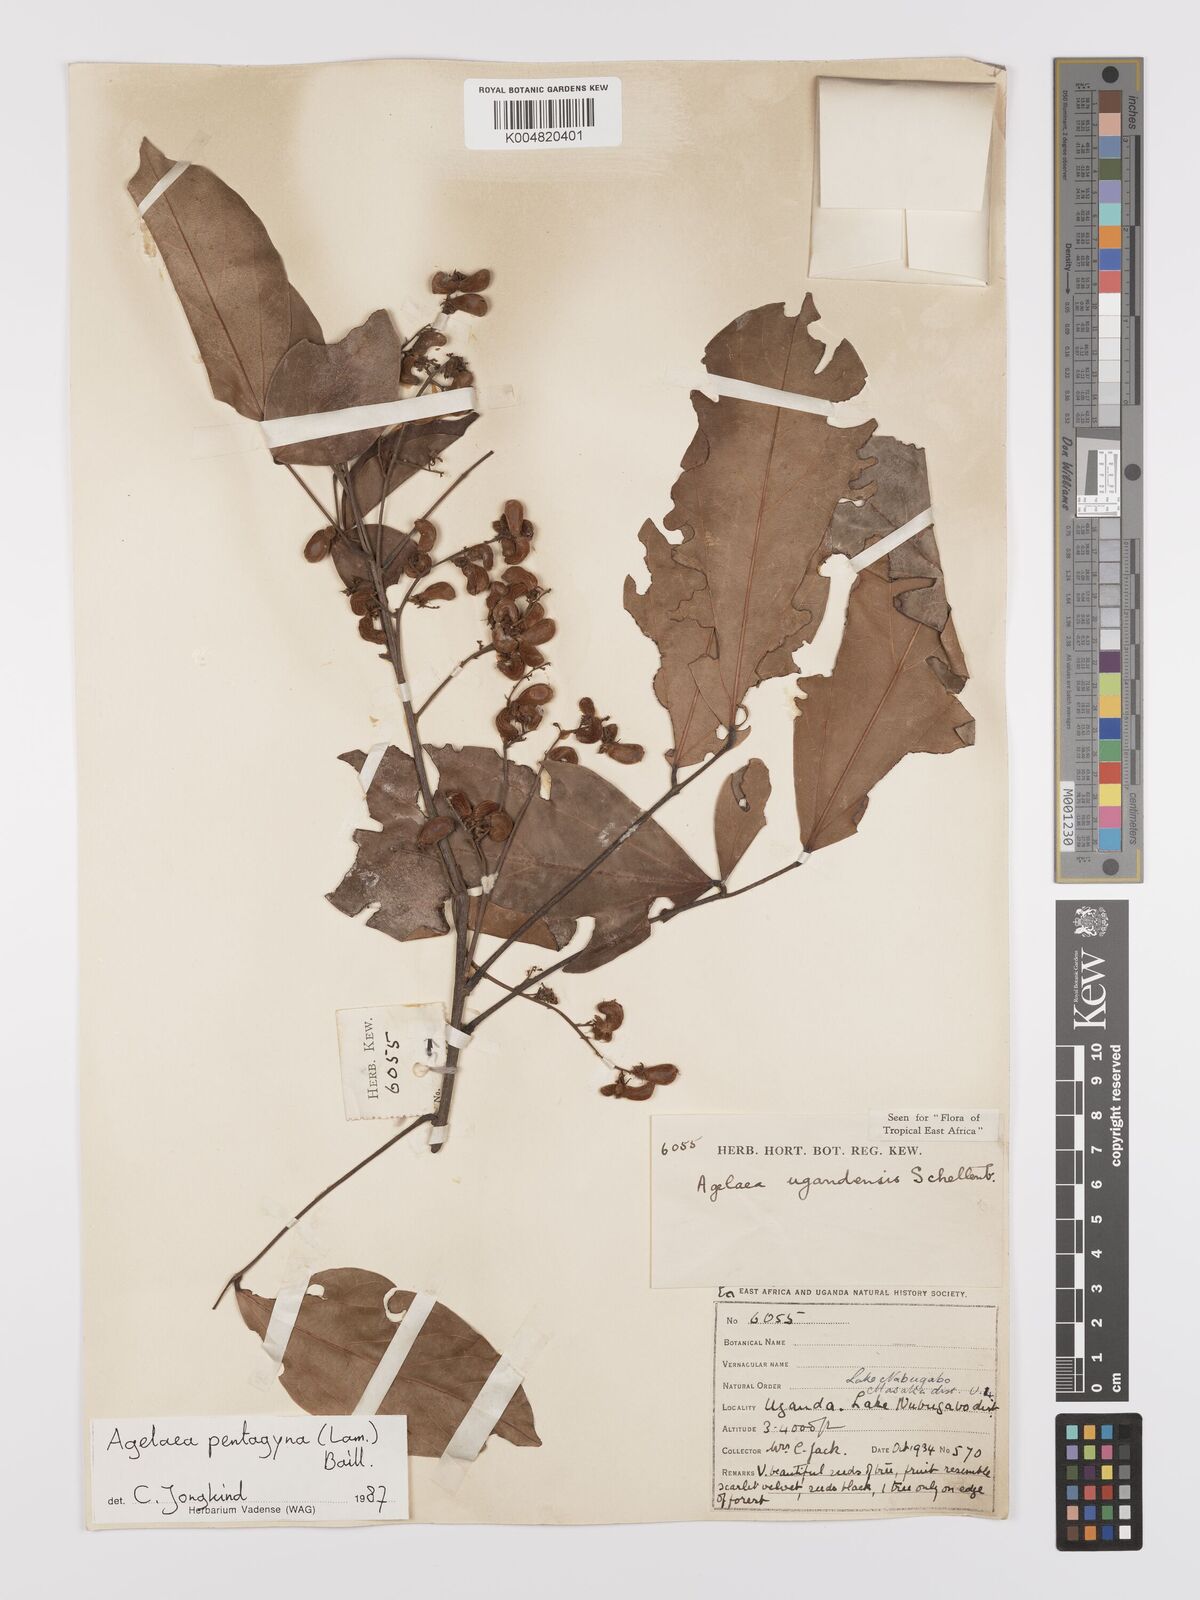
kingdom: Plantae
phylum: Tracheophyta
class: Magnoliopsida
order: Oxalidales
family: Connaraceae
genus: Agelaea
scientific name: Agelaea pentagyna
